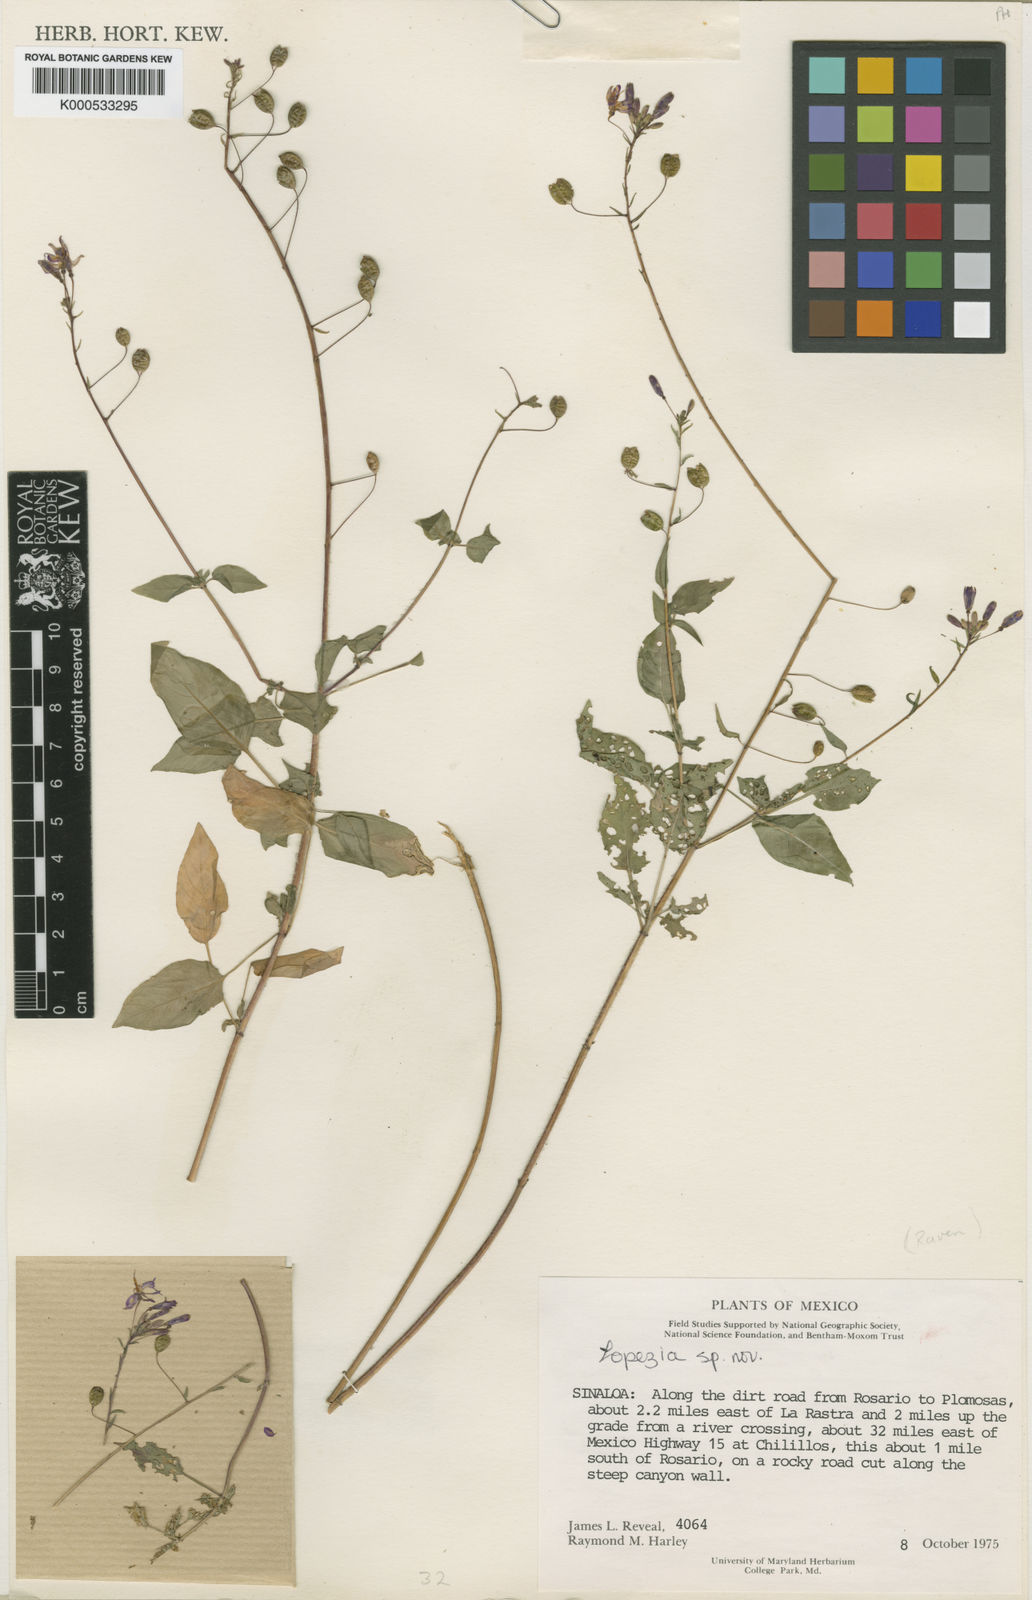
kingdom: Plantae
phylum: Tracheophyta
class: Magnoliopsida
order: Myrtales
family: Onagraceae
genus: Lopezia
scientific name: Lopezia concinna
